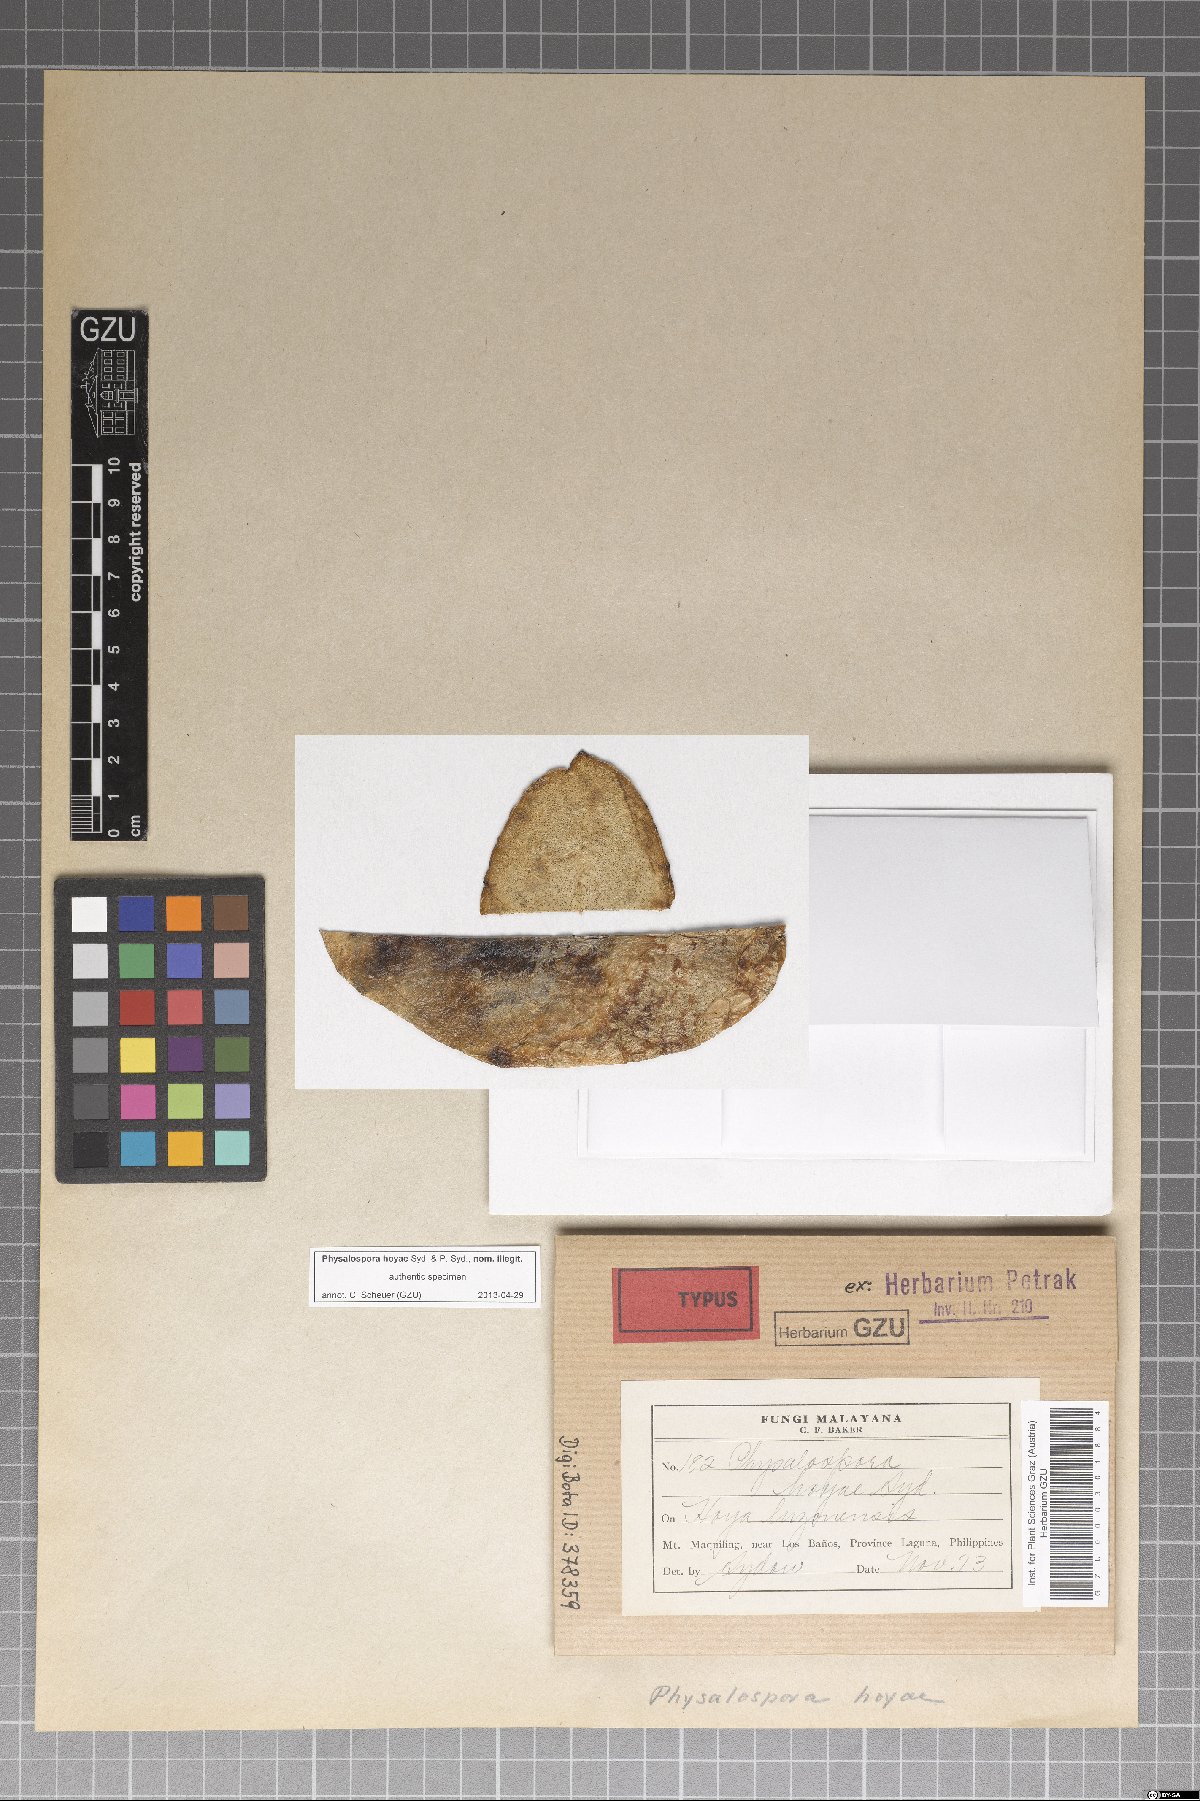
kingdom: Fungi
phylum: Ascomycota
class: Sordariomycetes
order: Xylariales
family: Hyponectriaceae
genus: Physalospora
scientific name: Physalospora
